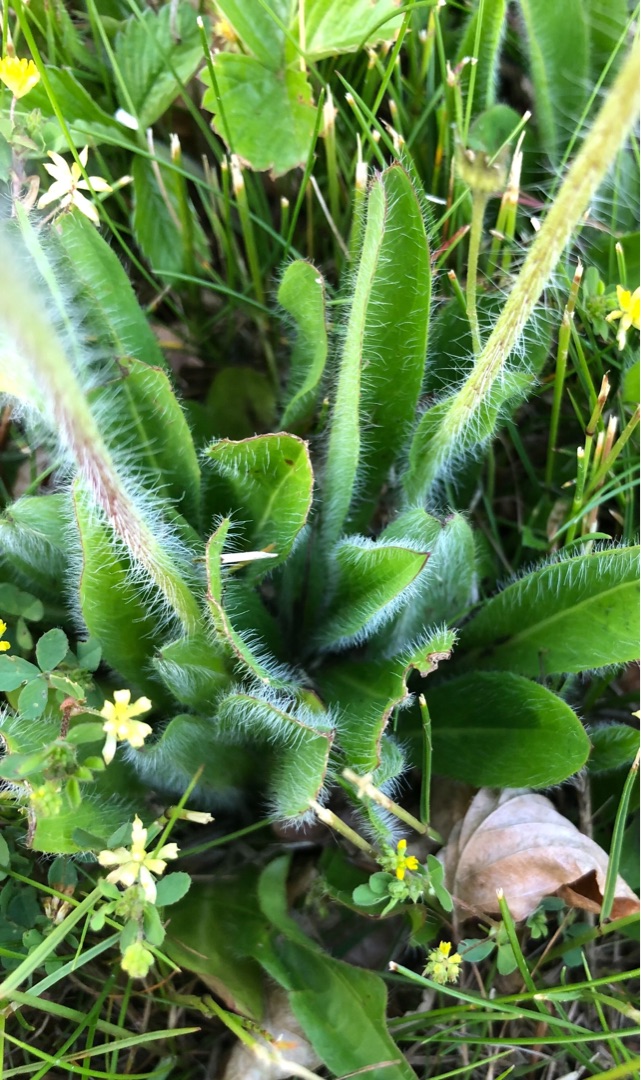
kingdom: Plantae
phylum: Tracheophyta
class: Magnoliopsida
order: Asterales
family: Asteraceae
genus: Pilosella
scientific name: Pilosella aurantiaca
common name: Pomerans-høgeurt
